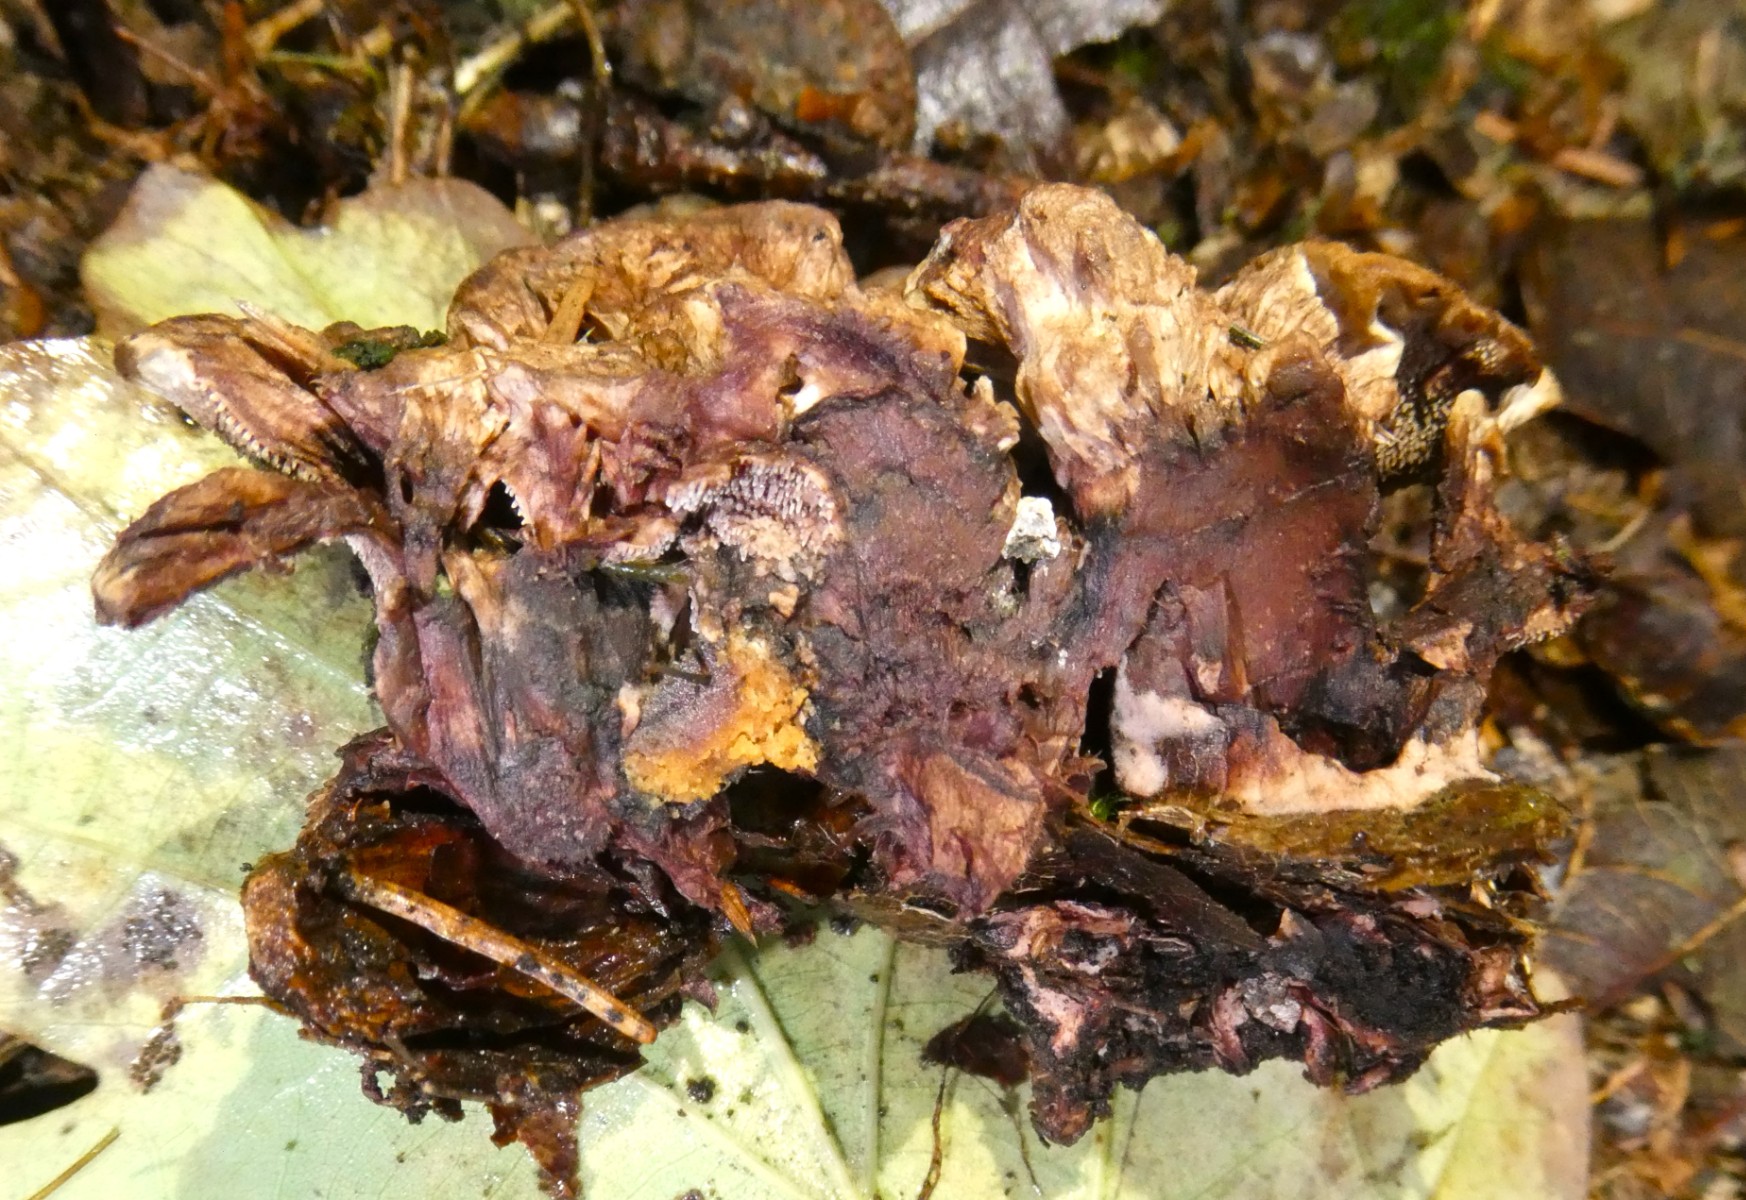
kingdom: Fungi
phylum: Basidiomycota
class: Agaricomycetes
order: Thelephorales
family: Bankeraceae
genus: Hydnellum
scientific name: Hydnellum concrescens
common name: Zoned tooth
